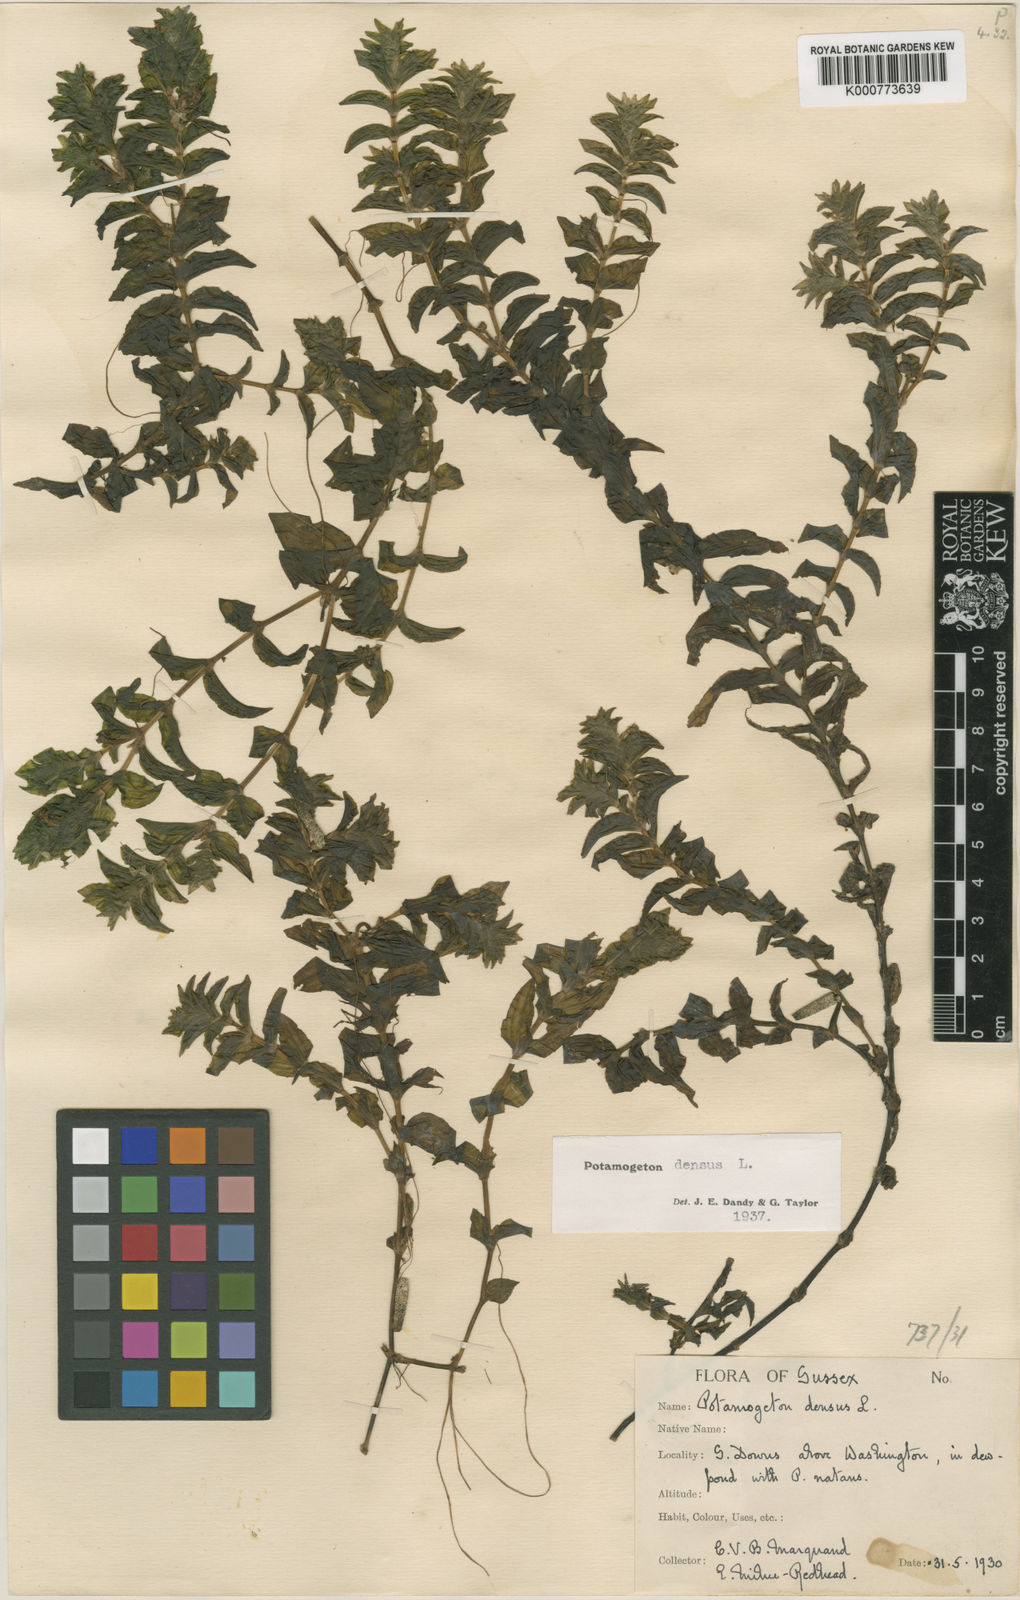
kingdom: Plantae
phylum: Tracheophyta
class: Liliopsida
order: Alismatales
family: Potamogetonaceae
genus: Groenlandia
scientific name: Groenlandia densa
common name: Opposite-leaved pondweed
